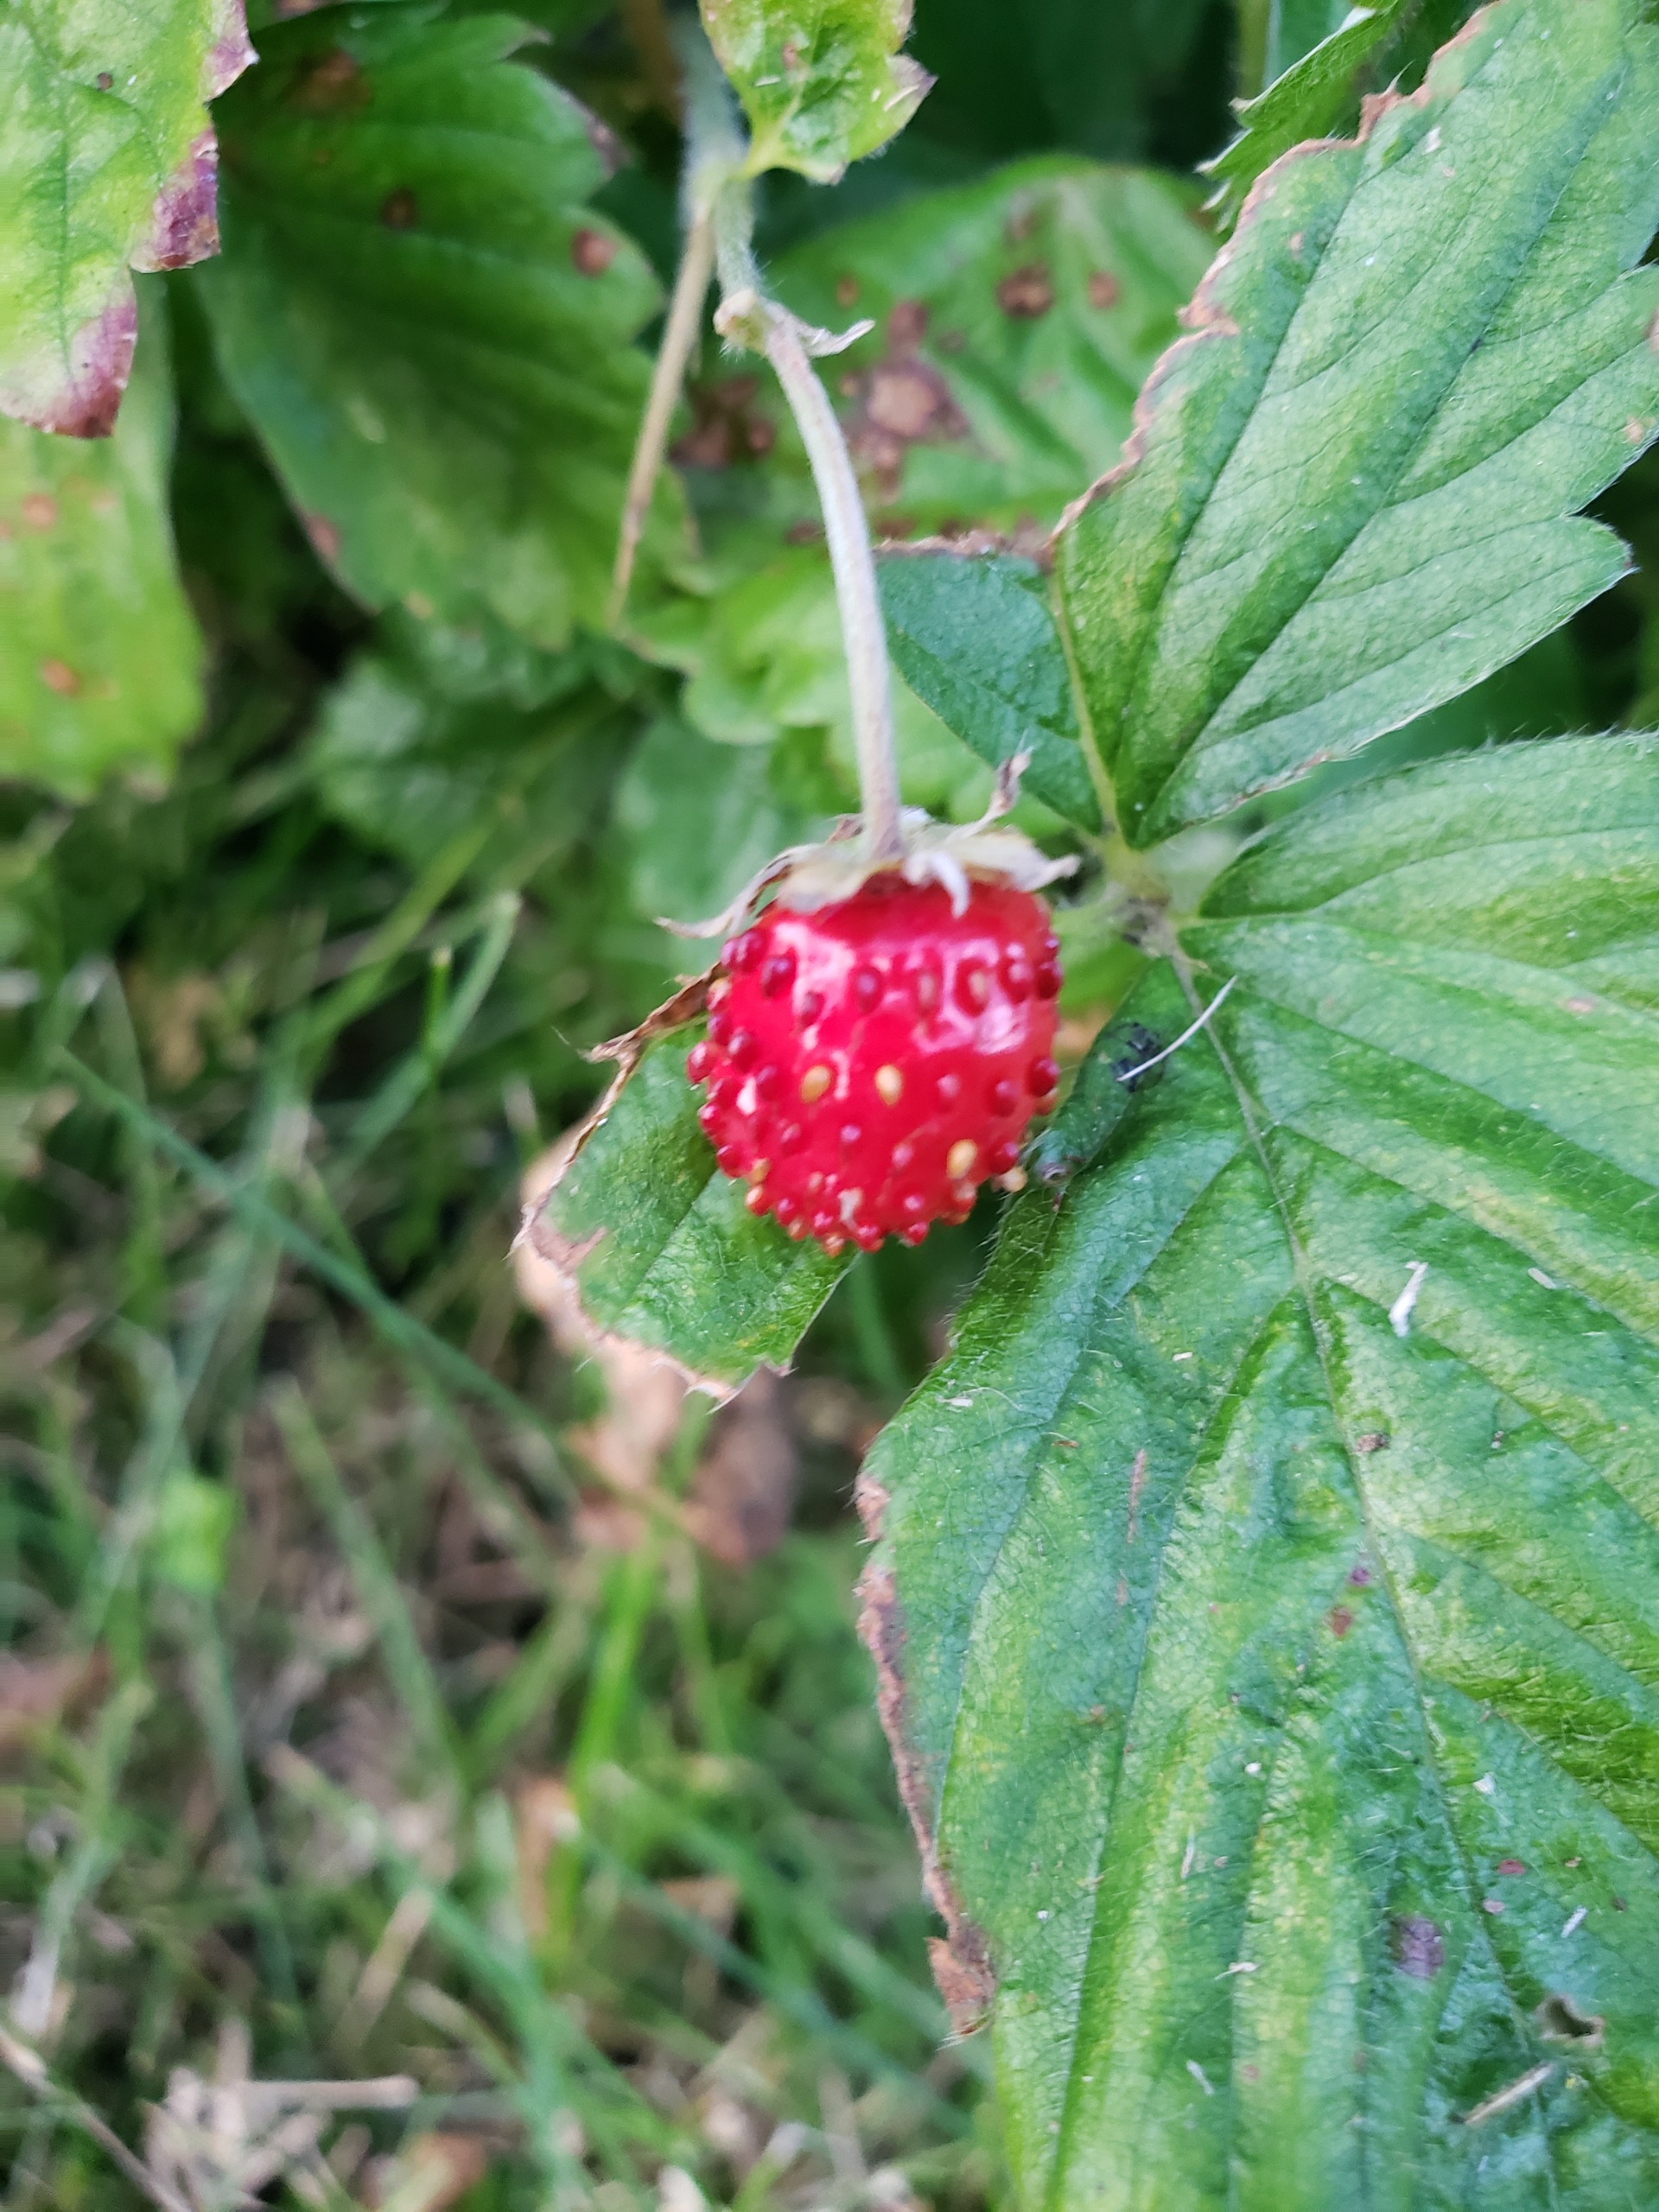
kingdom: Plantae
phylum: Tracheophyta
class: Magnoliopsida
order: Rosales
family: Rosaceae
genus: Fragaria
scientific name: Fragaria vesca
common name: Skov-jordbær
